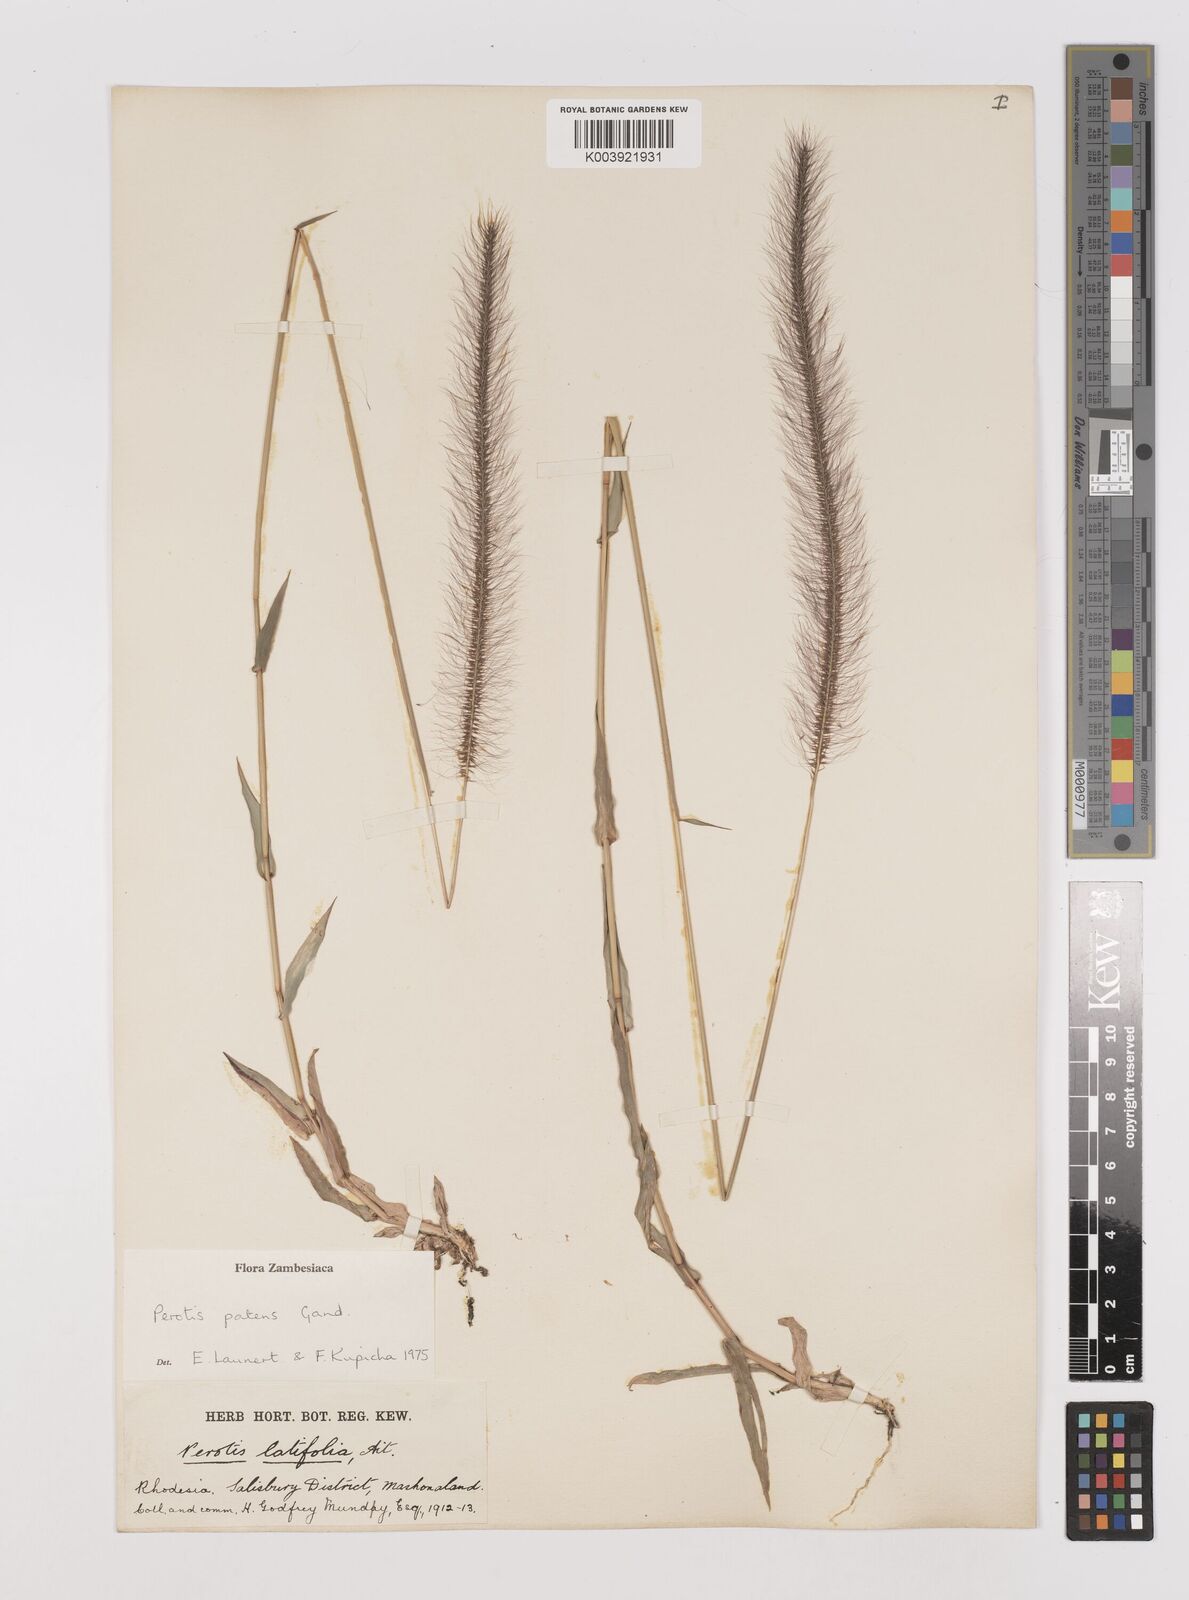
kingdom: Plantae
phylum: Tracheophyta
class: Liliopsida
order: Poales
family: Poaceae
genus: Perotis
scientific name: Perotis patens
